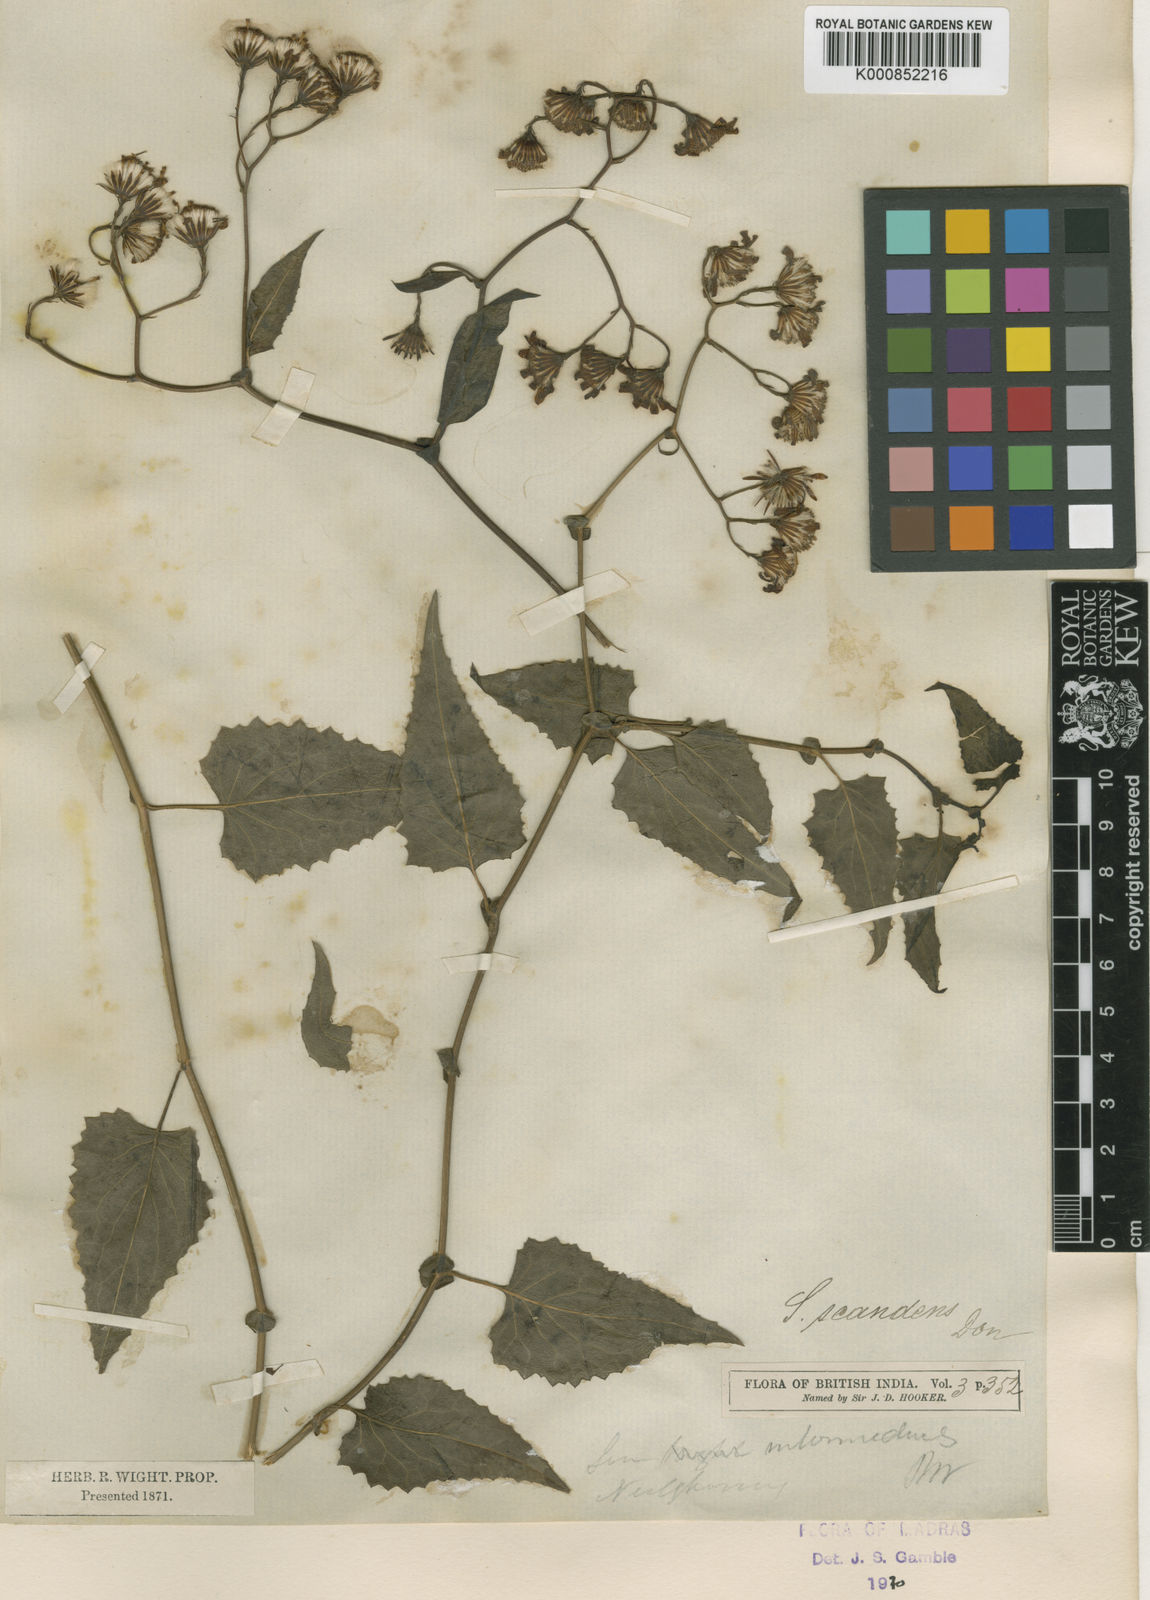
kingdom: Plantae
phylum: Tracheophyta
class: Magnoliopsida
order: Asterales
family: Asteraceae
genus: Senecio
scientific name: Senecio scandens
